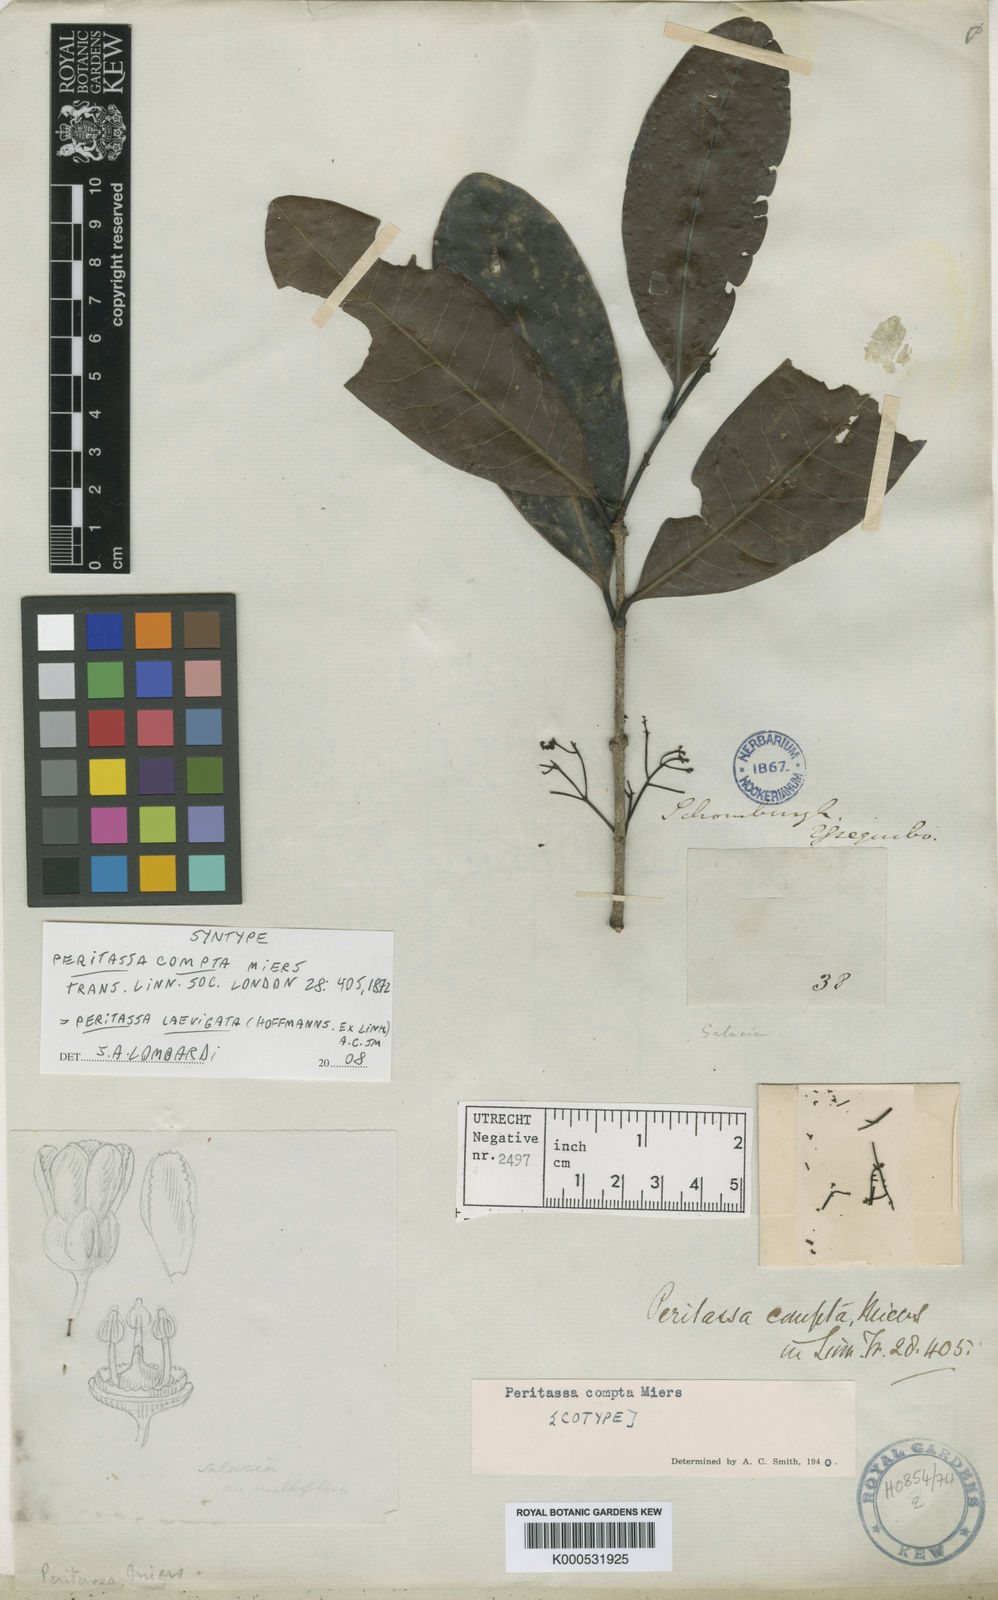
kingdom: Plantae
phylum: Tracheophyta
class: Magnoliopsida
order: Celastrales
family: Celastraceae
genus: Peritassa
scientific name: Peritassa laevigata
